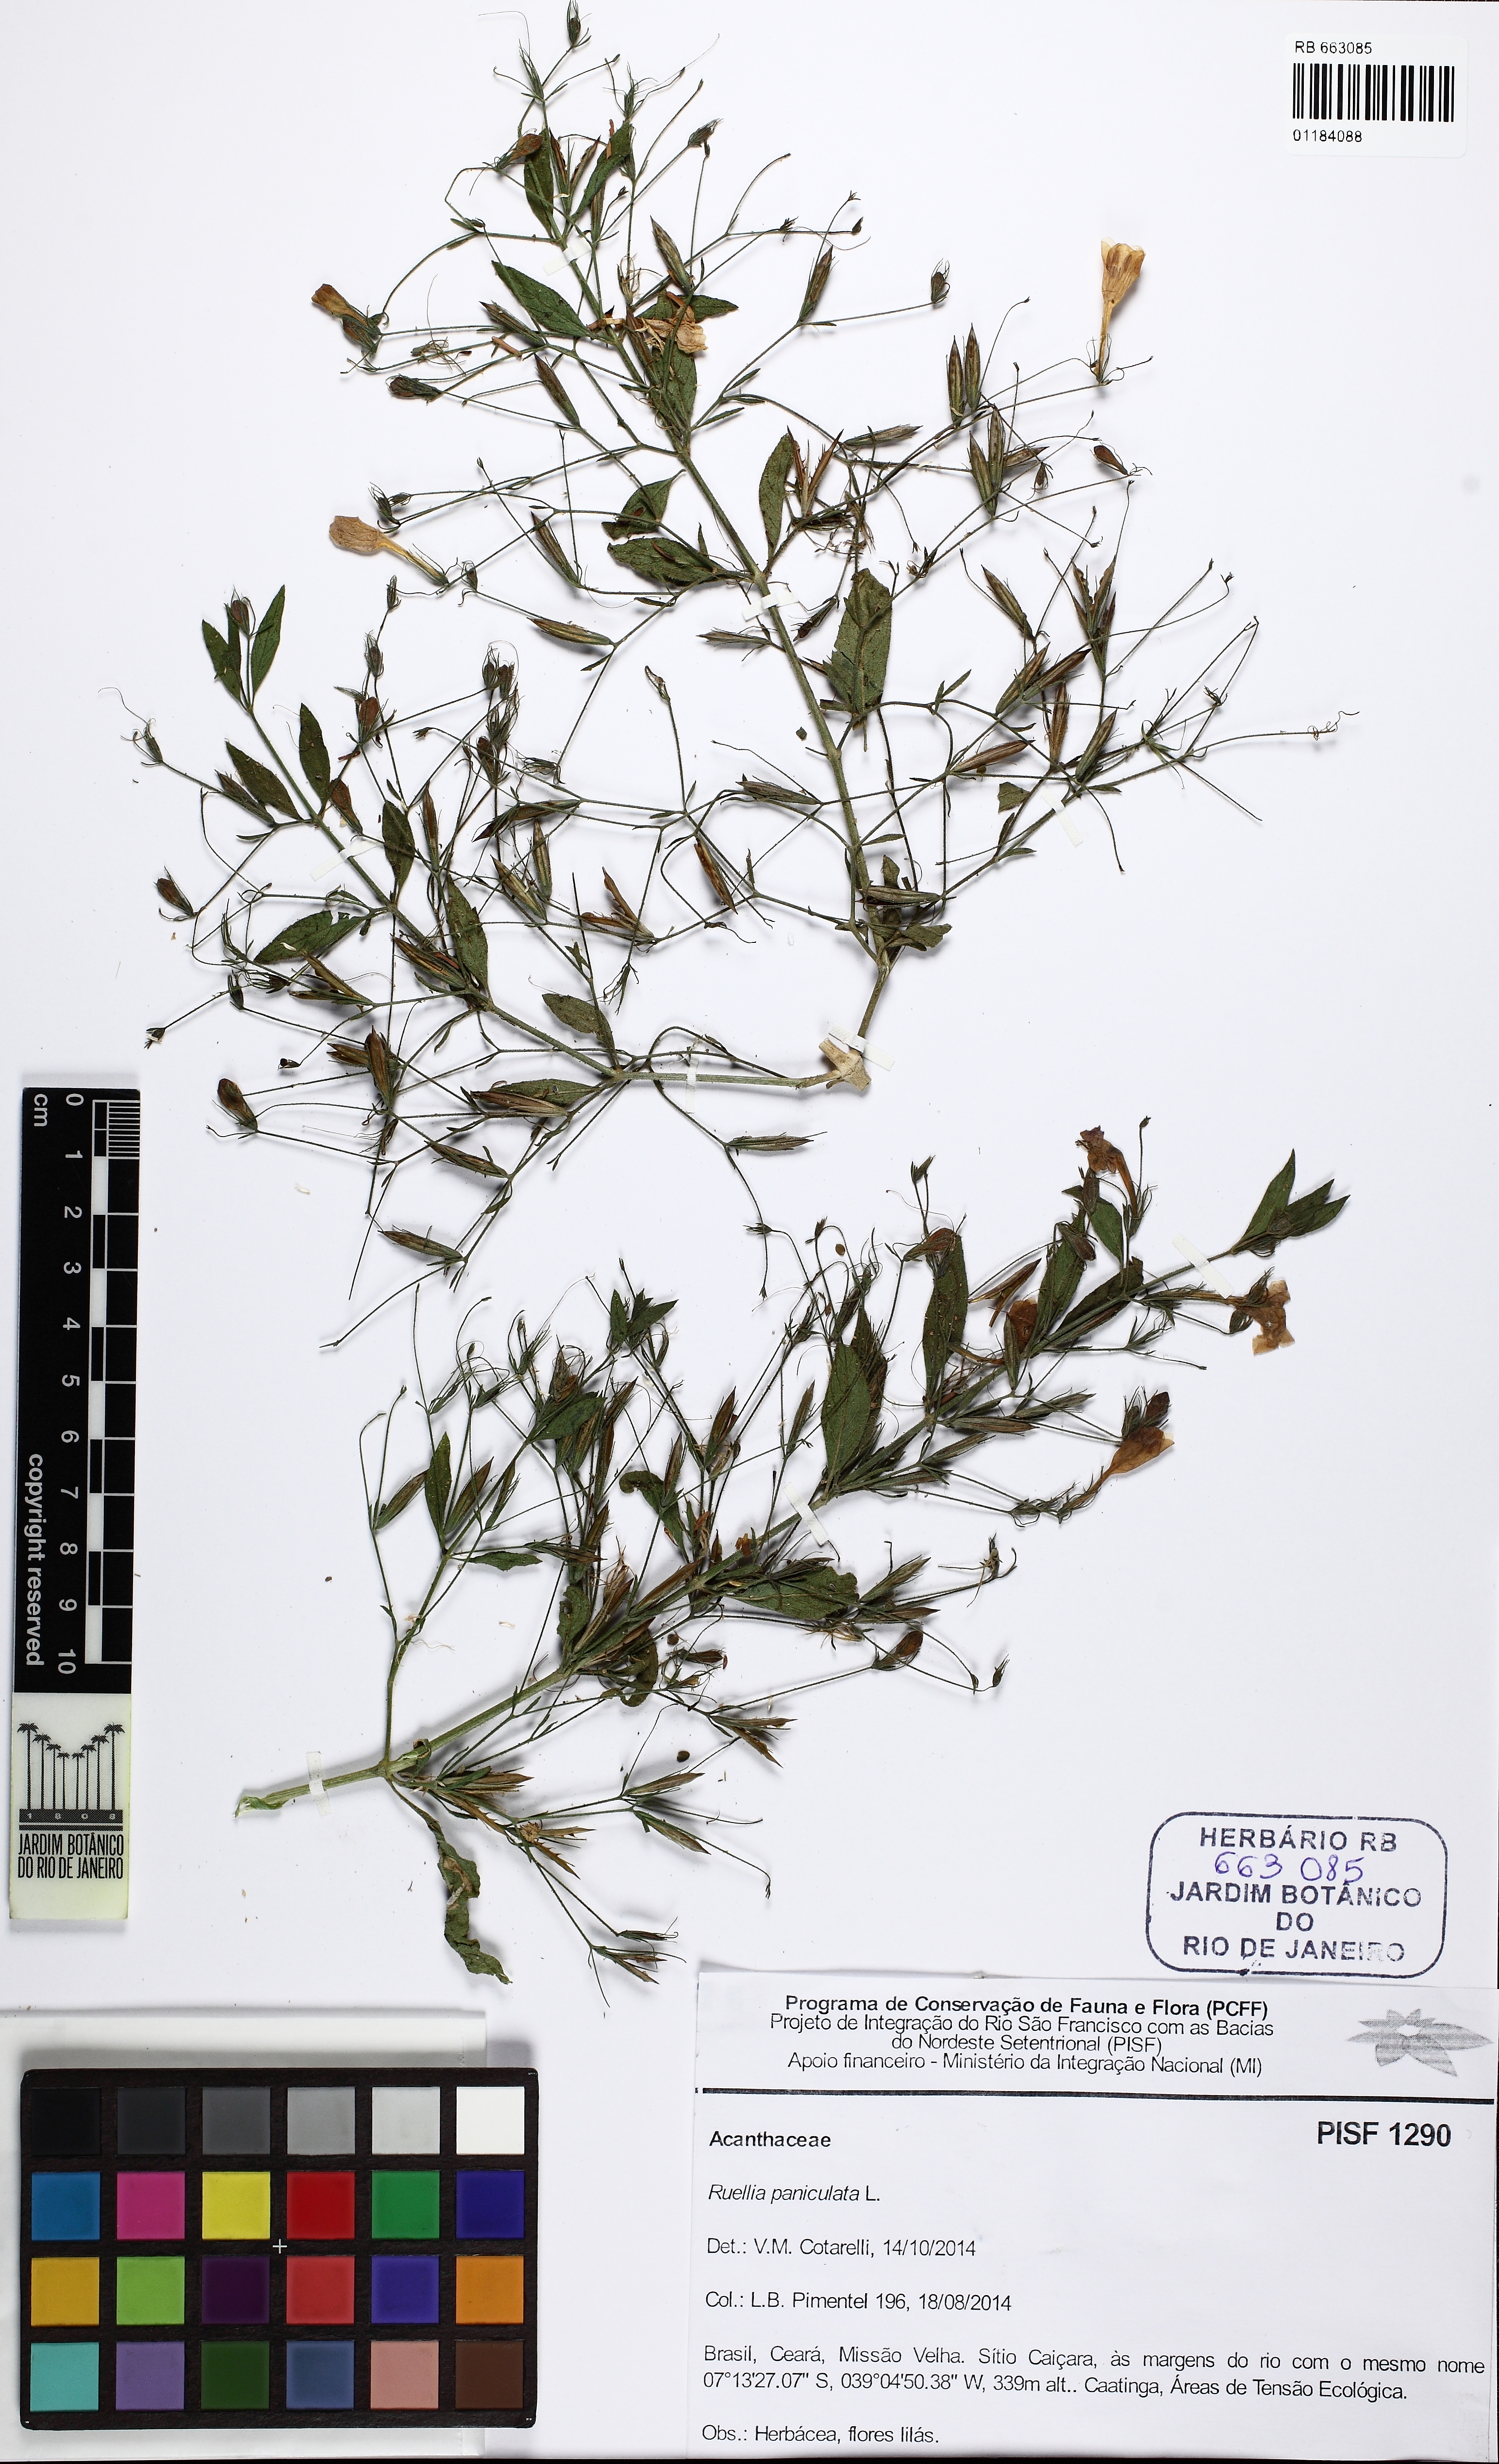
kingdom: Plantae
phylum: Tracheophyta
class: Magnoliopsida
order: Lamiales
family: Acanthaceae
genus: Ruellia
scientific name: Ruellia paniculata
